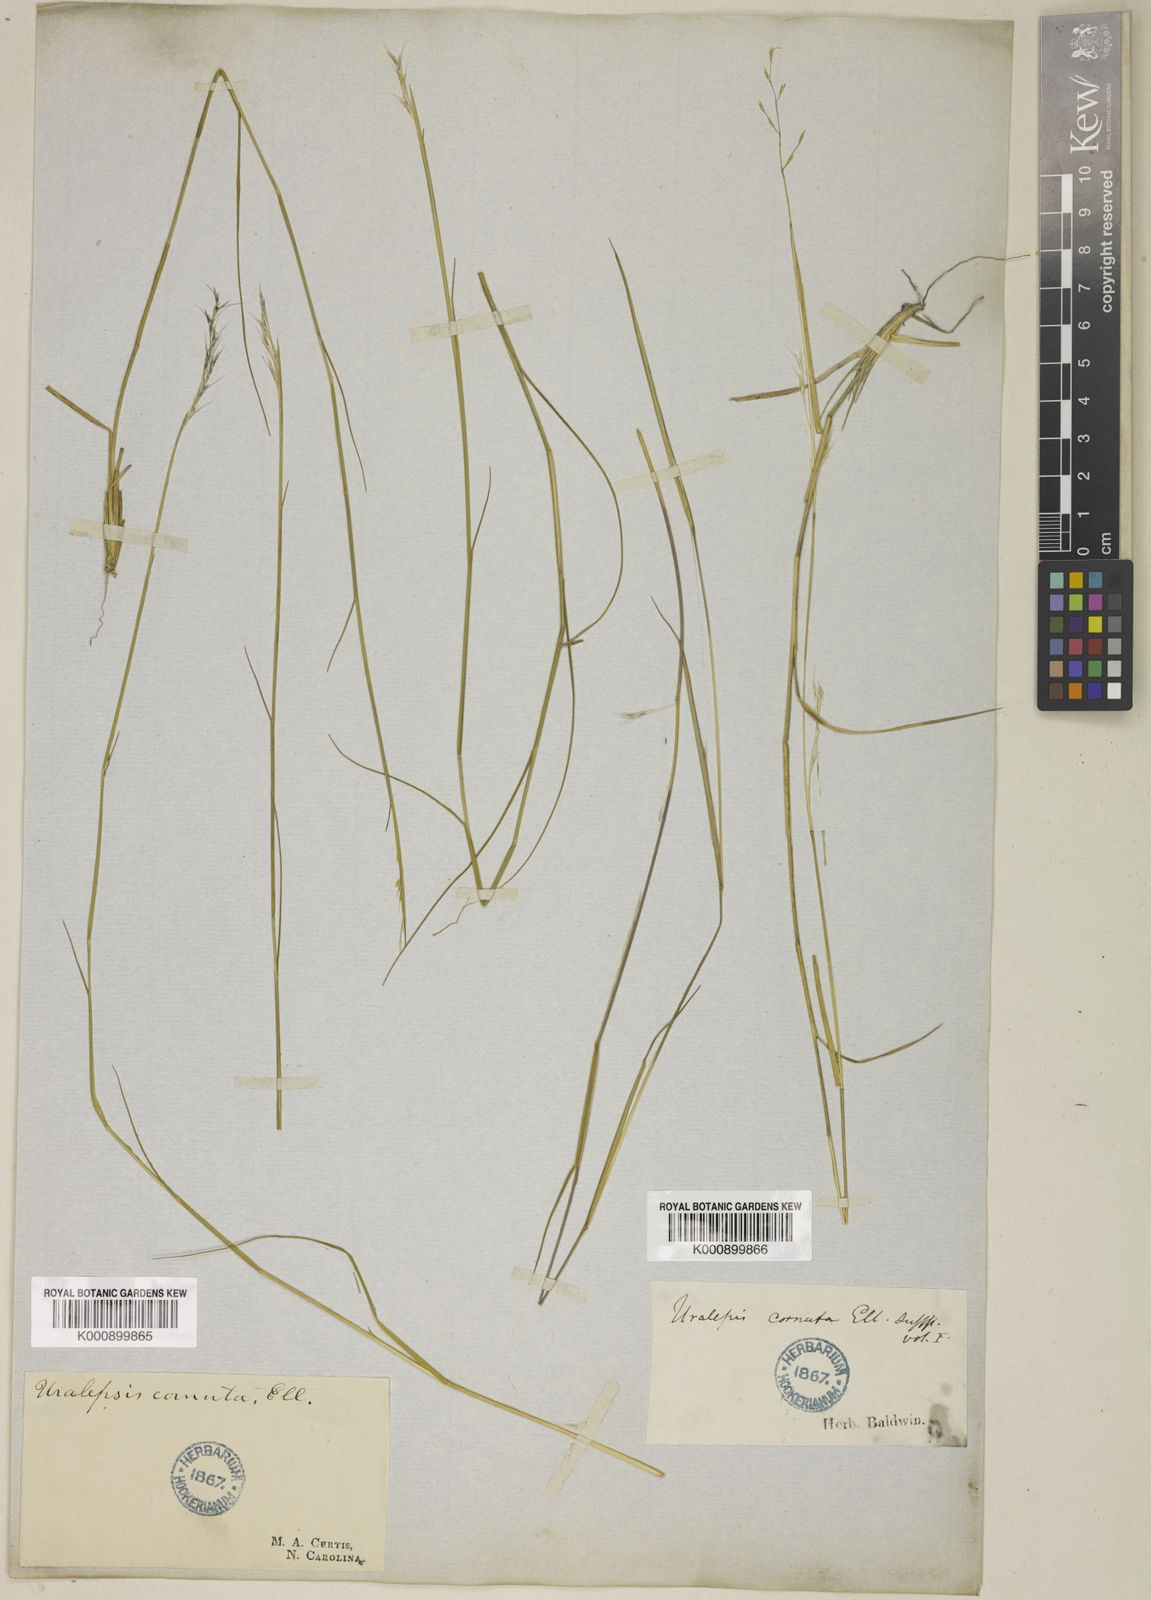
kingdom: Plantae
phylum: Tracheophyta
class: Liliopsida
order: Poales
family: Poaceae
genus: Triplasis
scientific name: Triplasis americana
